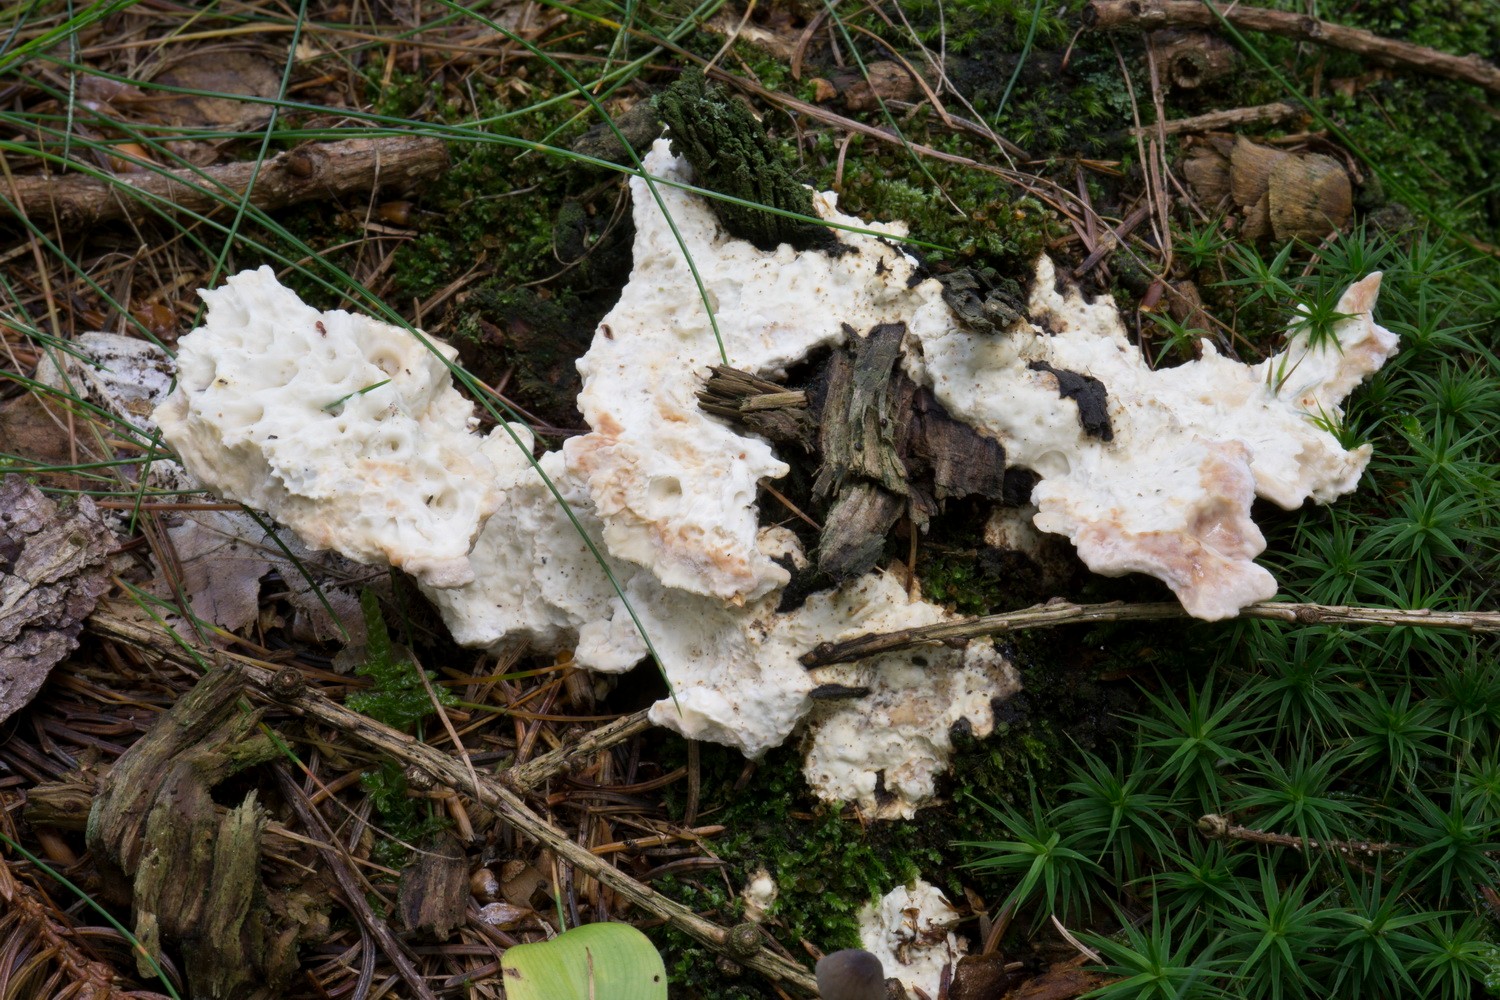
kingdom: Fungi
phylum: Basidiomycota
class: Agaricomycetes
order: Polyporales
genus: Calcipostia
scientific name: Calcipostia guttulata
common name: dråbe-kødporesvamp
